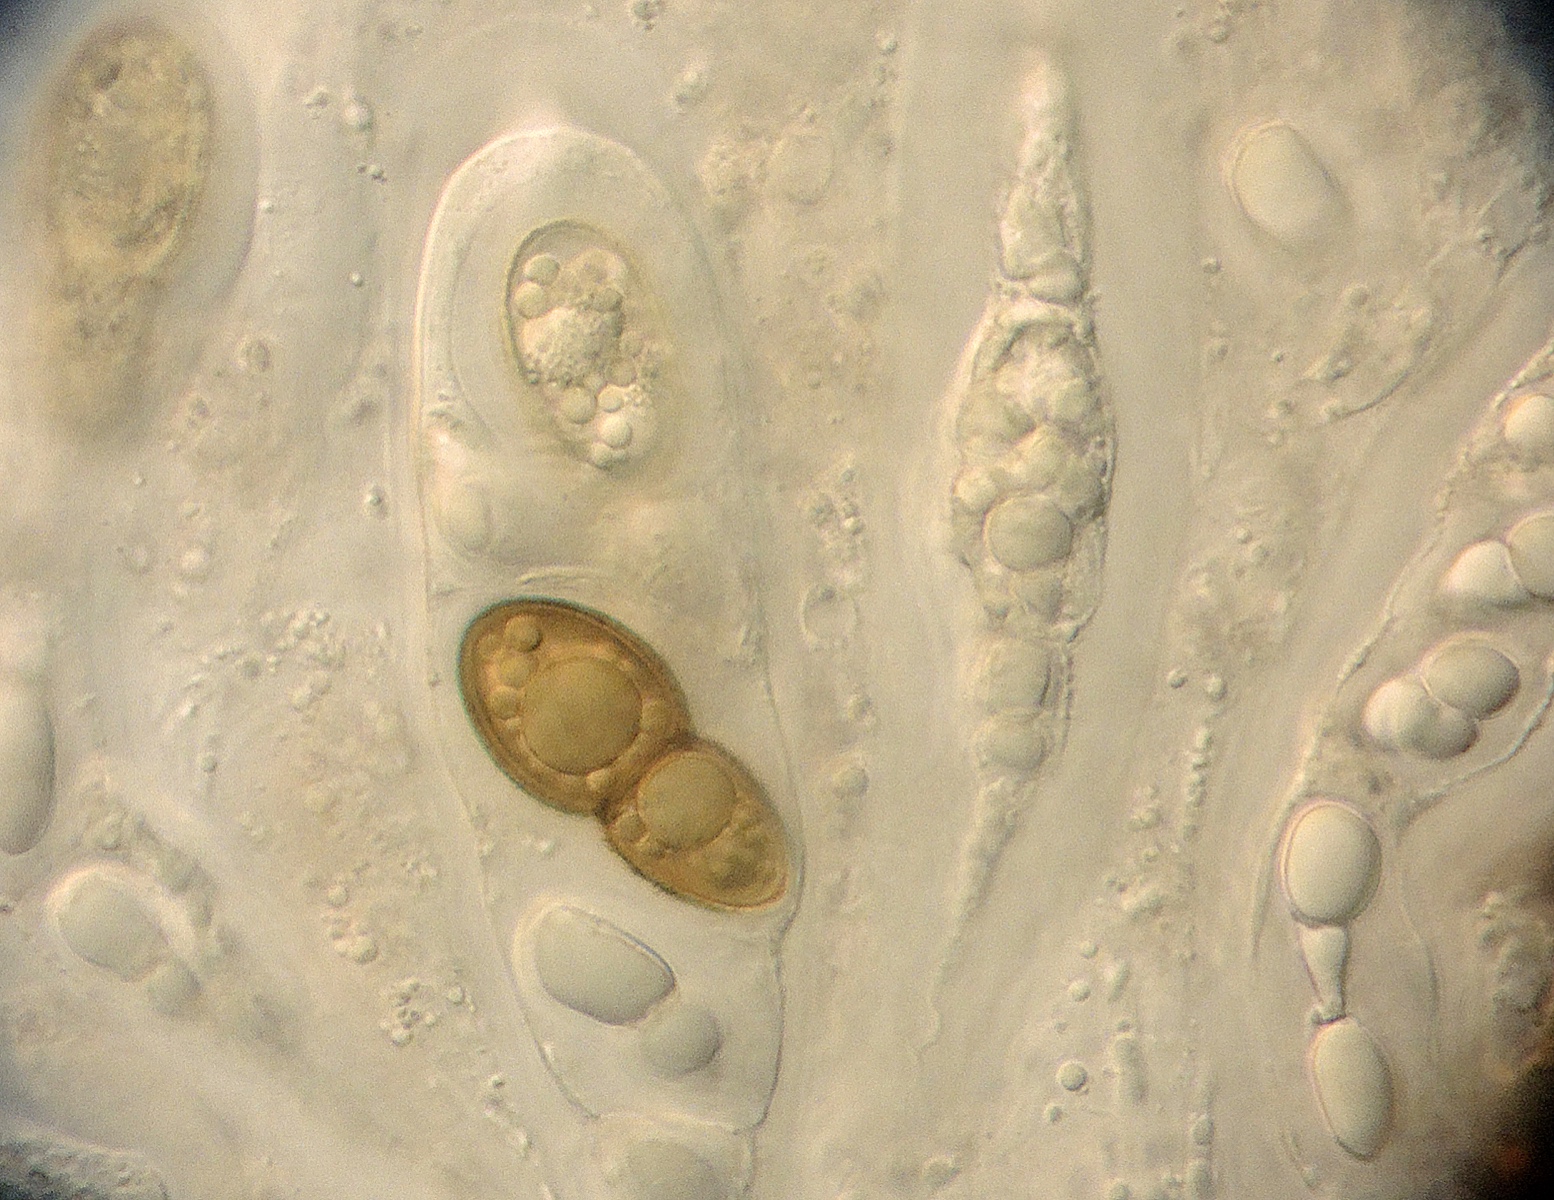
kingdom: Fungi
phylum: Ascomycota
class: Eurotiomycetes
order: Pyrenulales
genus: Splanchospora
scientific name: Splanchospora ampullacea
